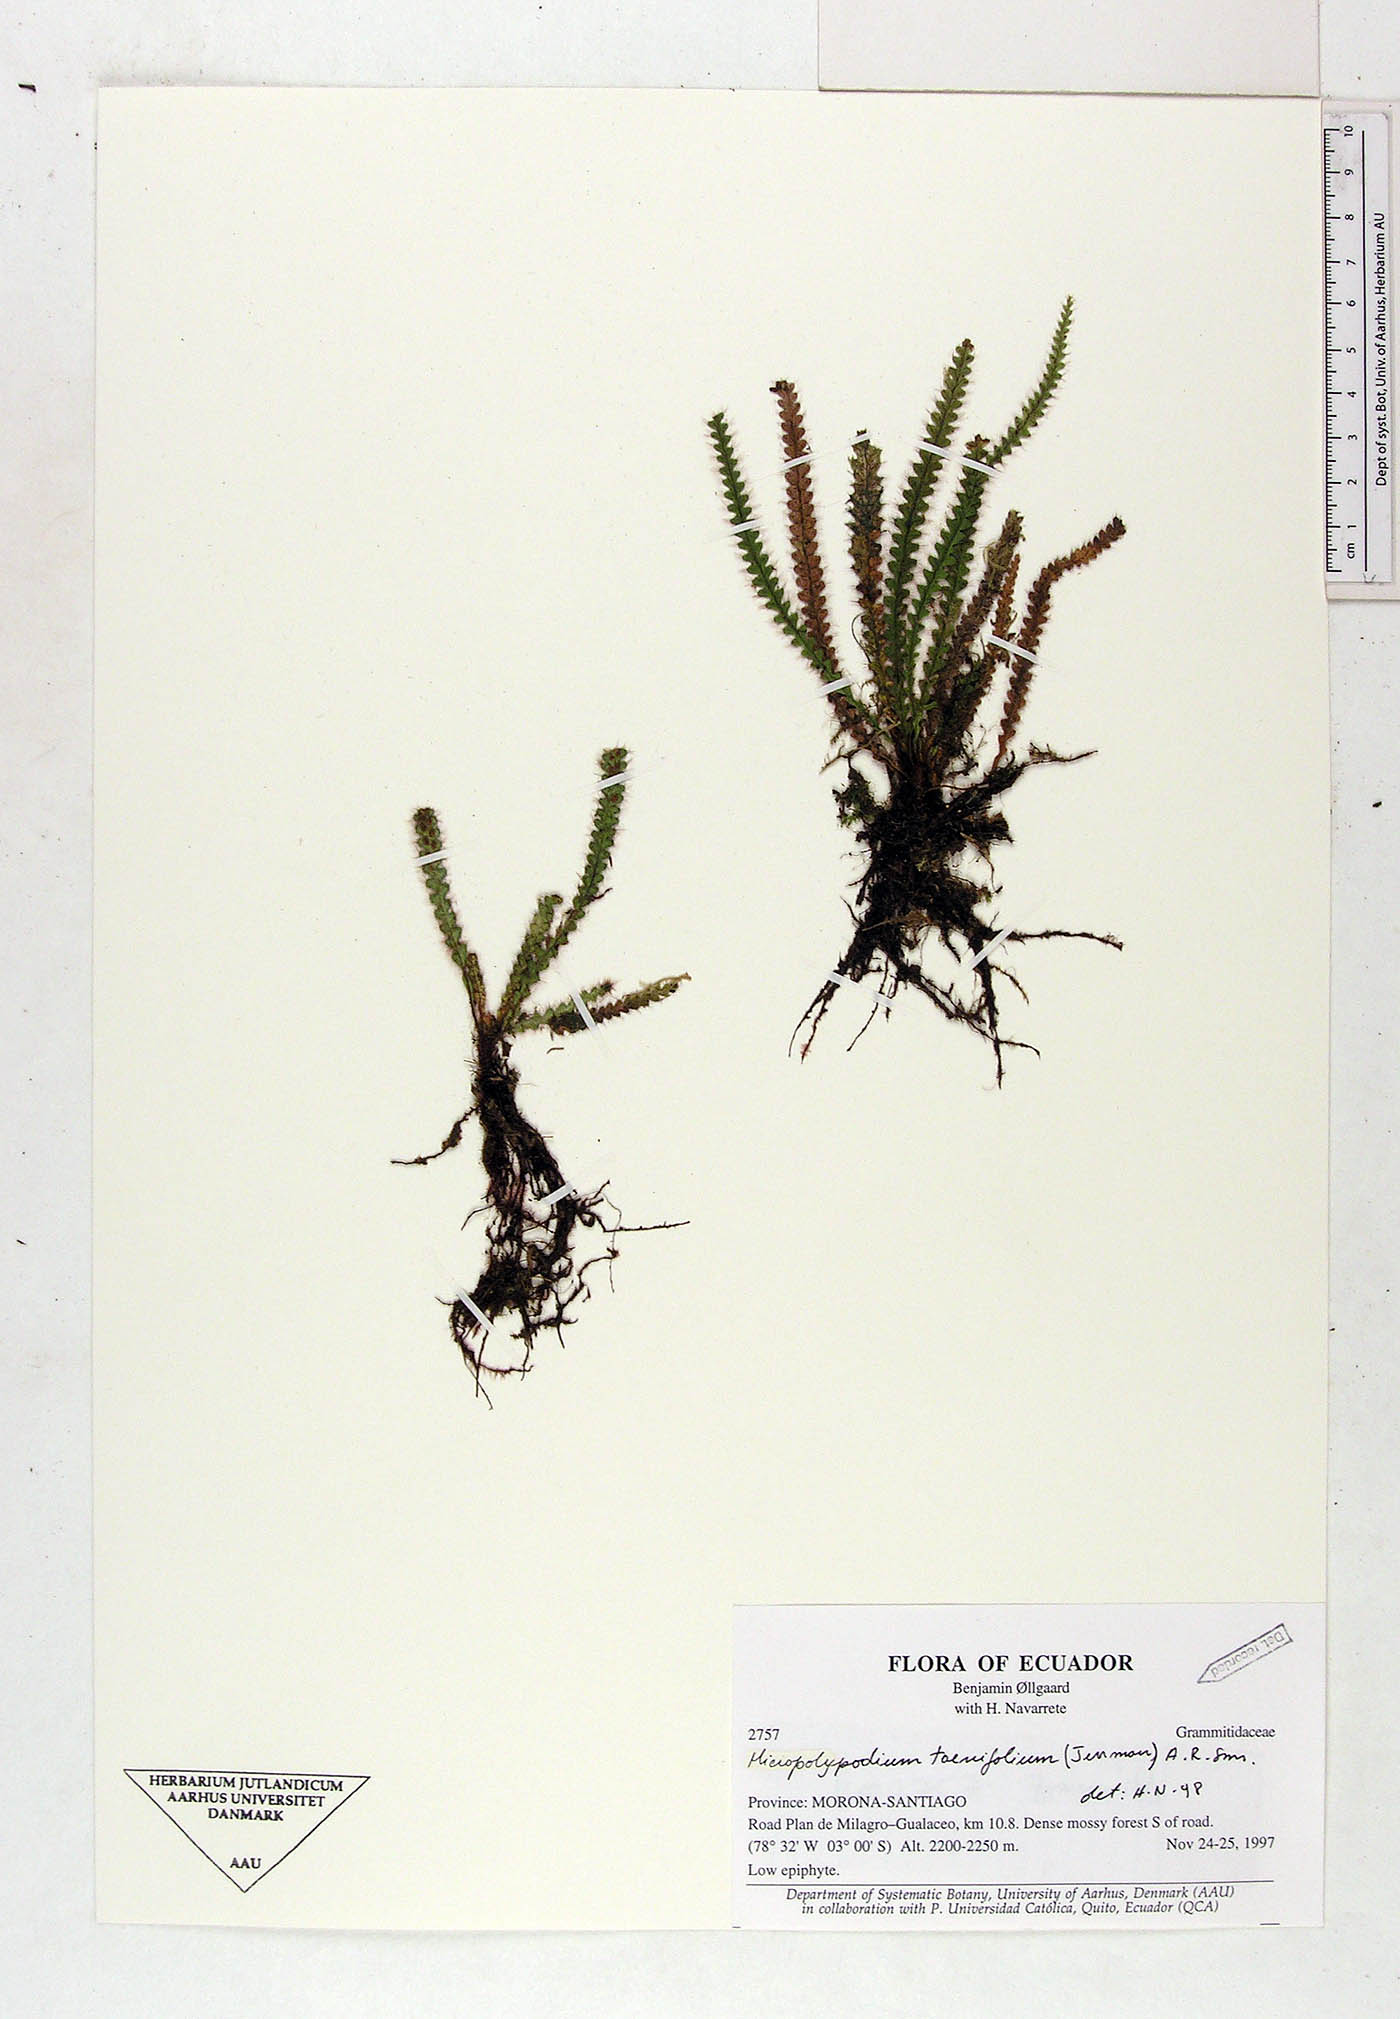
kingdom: Plantae
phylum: Tracheophyta
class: Polypodiopsida
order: Polypodiales
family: Polypodiaceae
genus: Grammitis
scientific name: Grammitis
